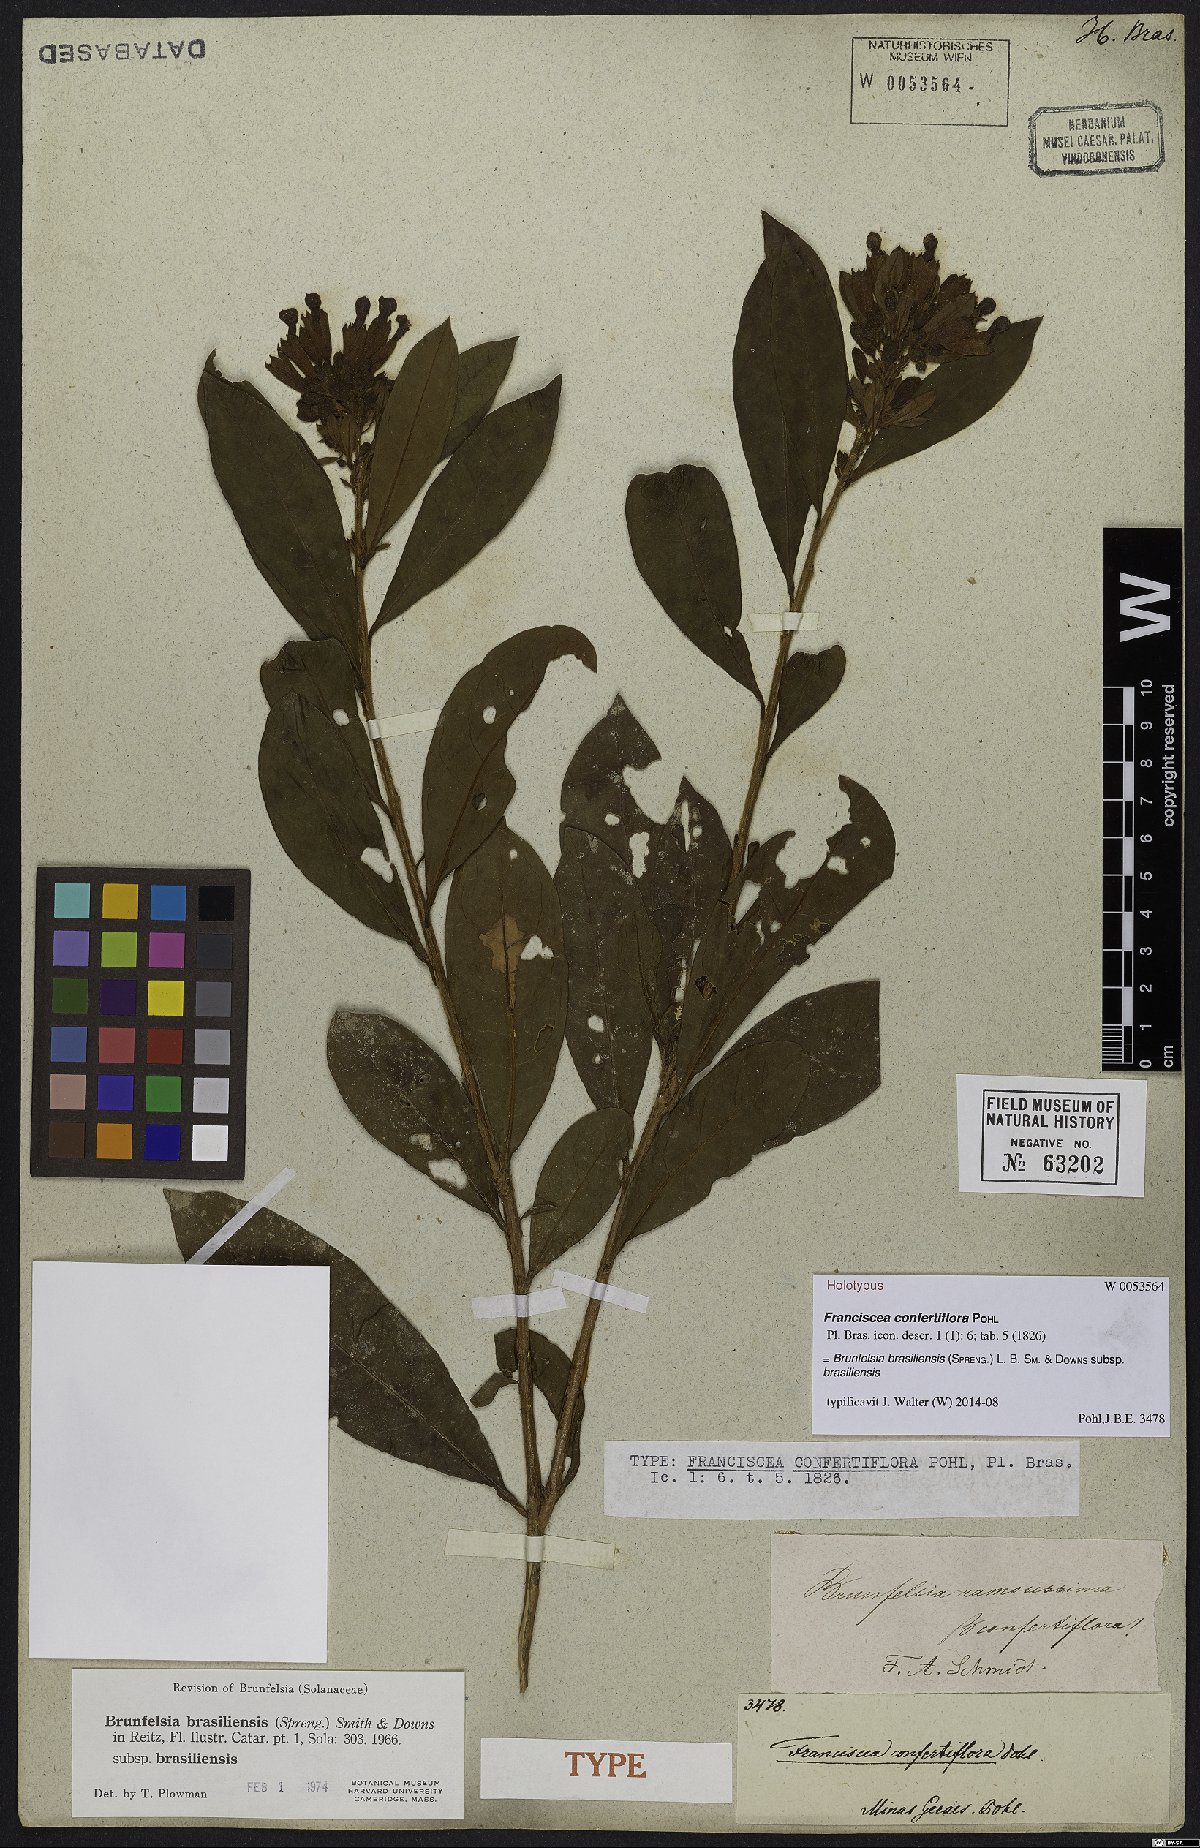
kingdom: Plantae
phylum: Tracheophyta
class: Magnoliopsida
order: Solanales
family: Solanaceae
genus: Brunfelsia
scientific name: Brunfelsia brasiliensis
